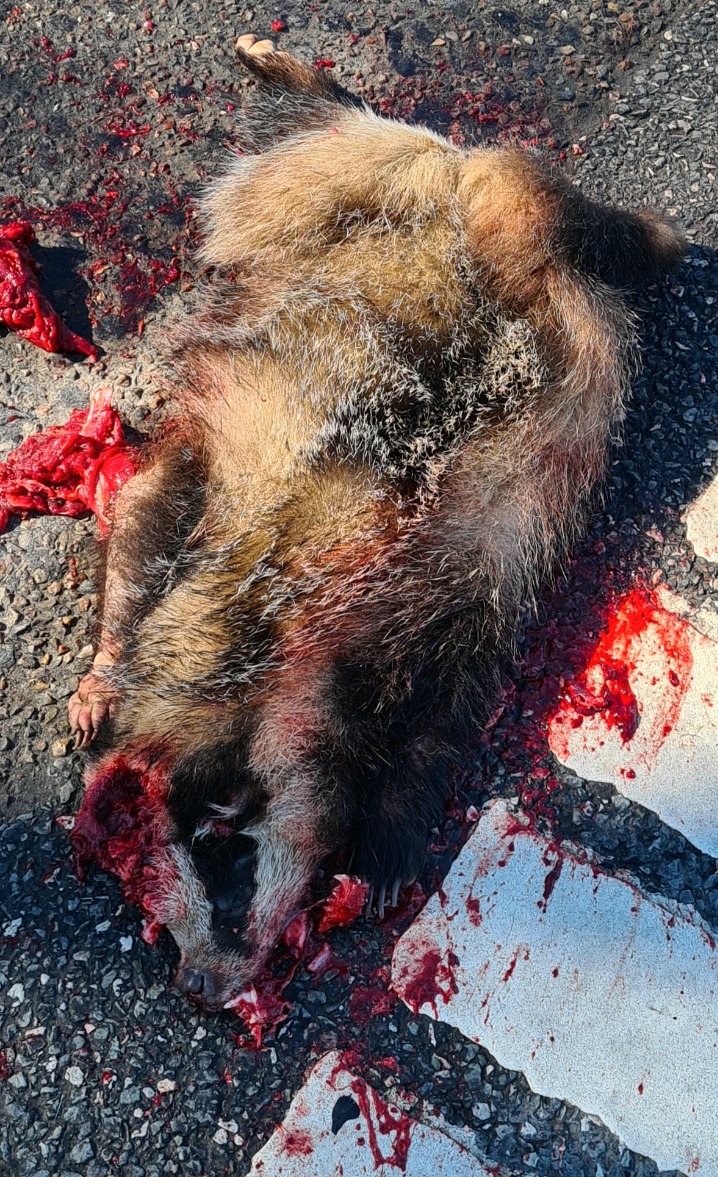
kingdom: Animalia
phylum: Chordata
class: Mammalia
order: Carnivora
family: Mustelidae
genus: Meles
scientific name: Meles meles
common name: Grævling
